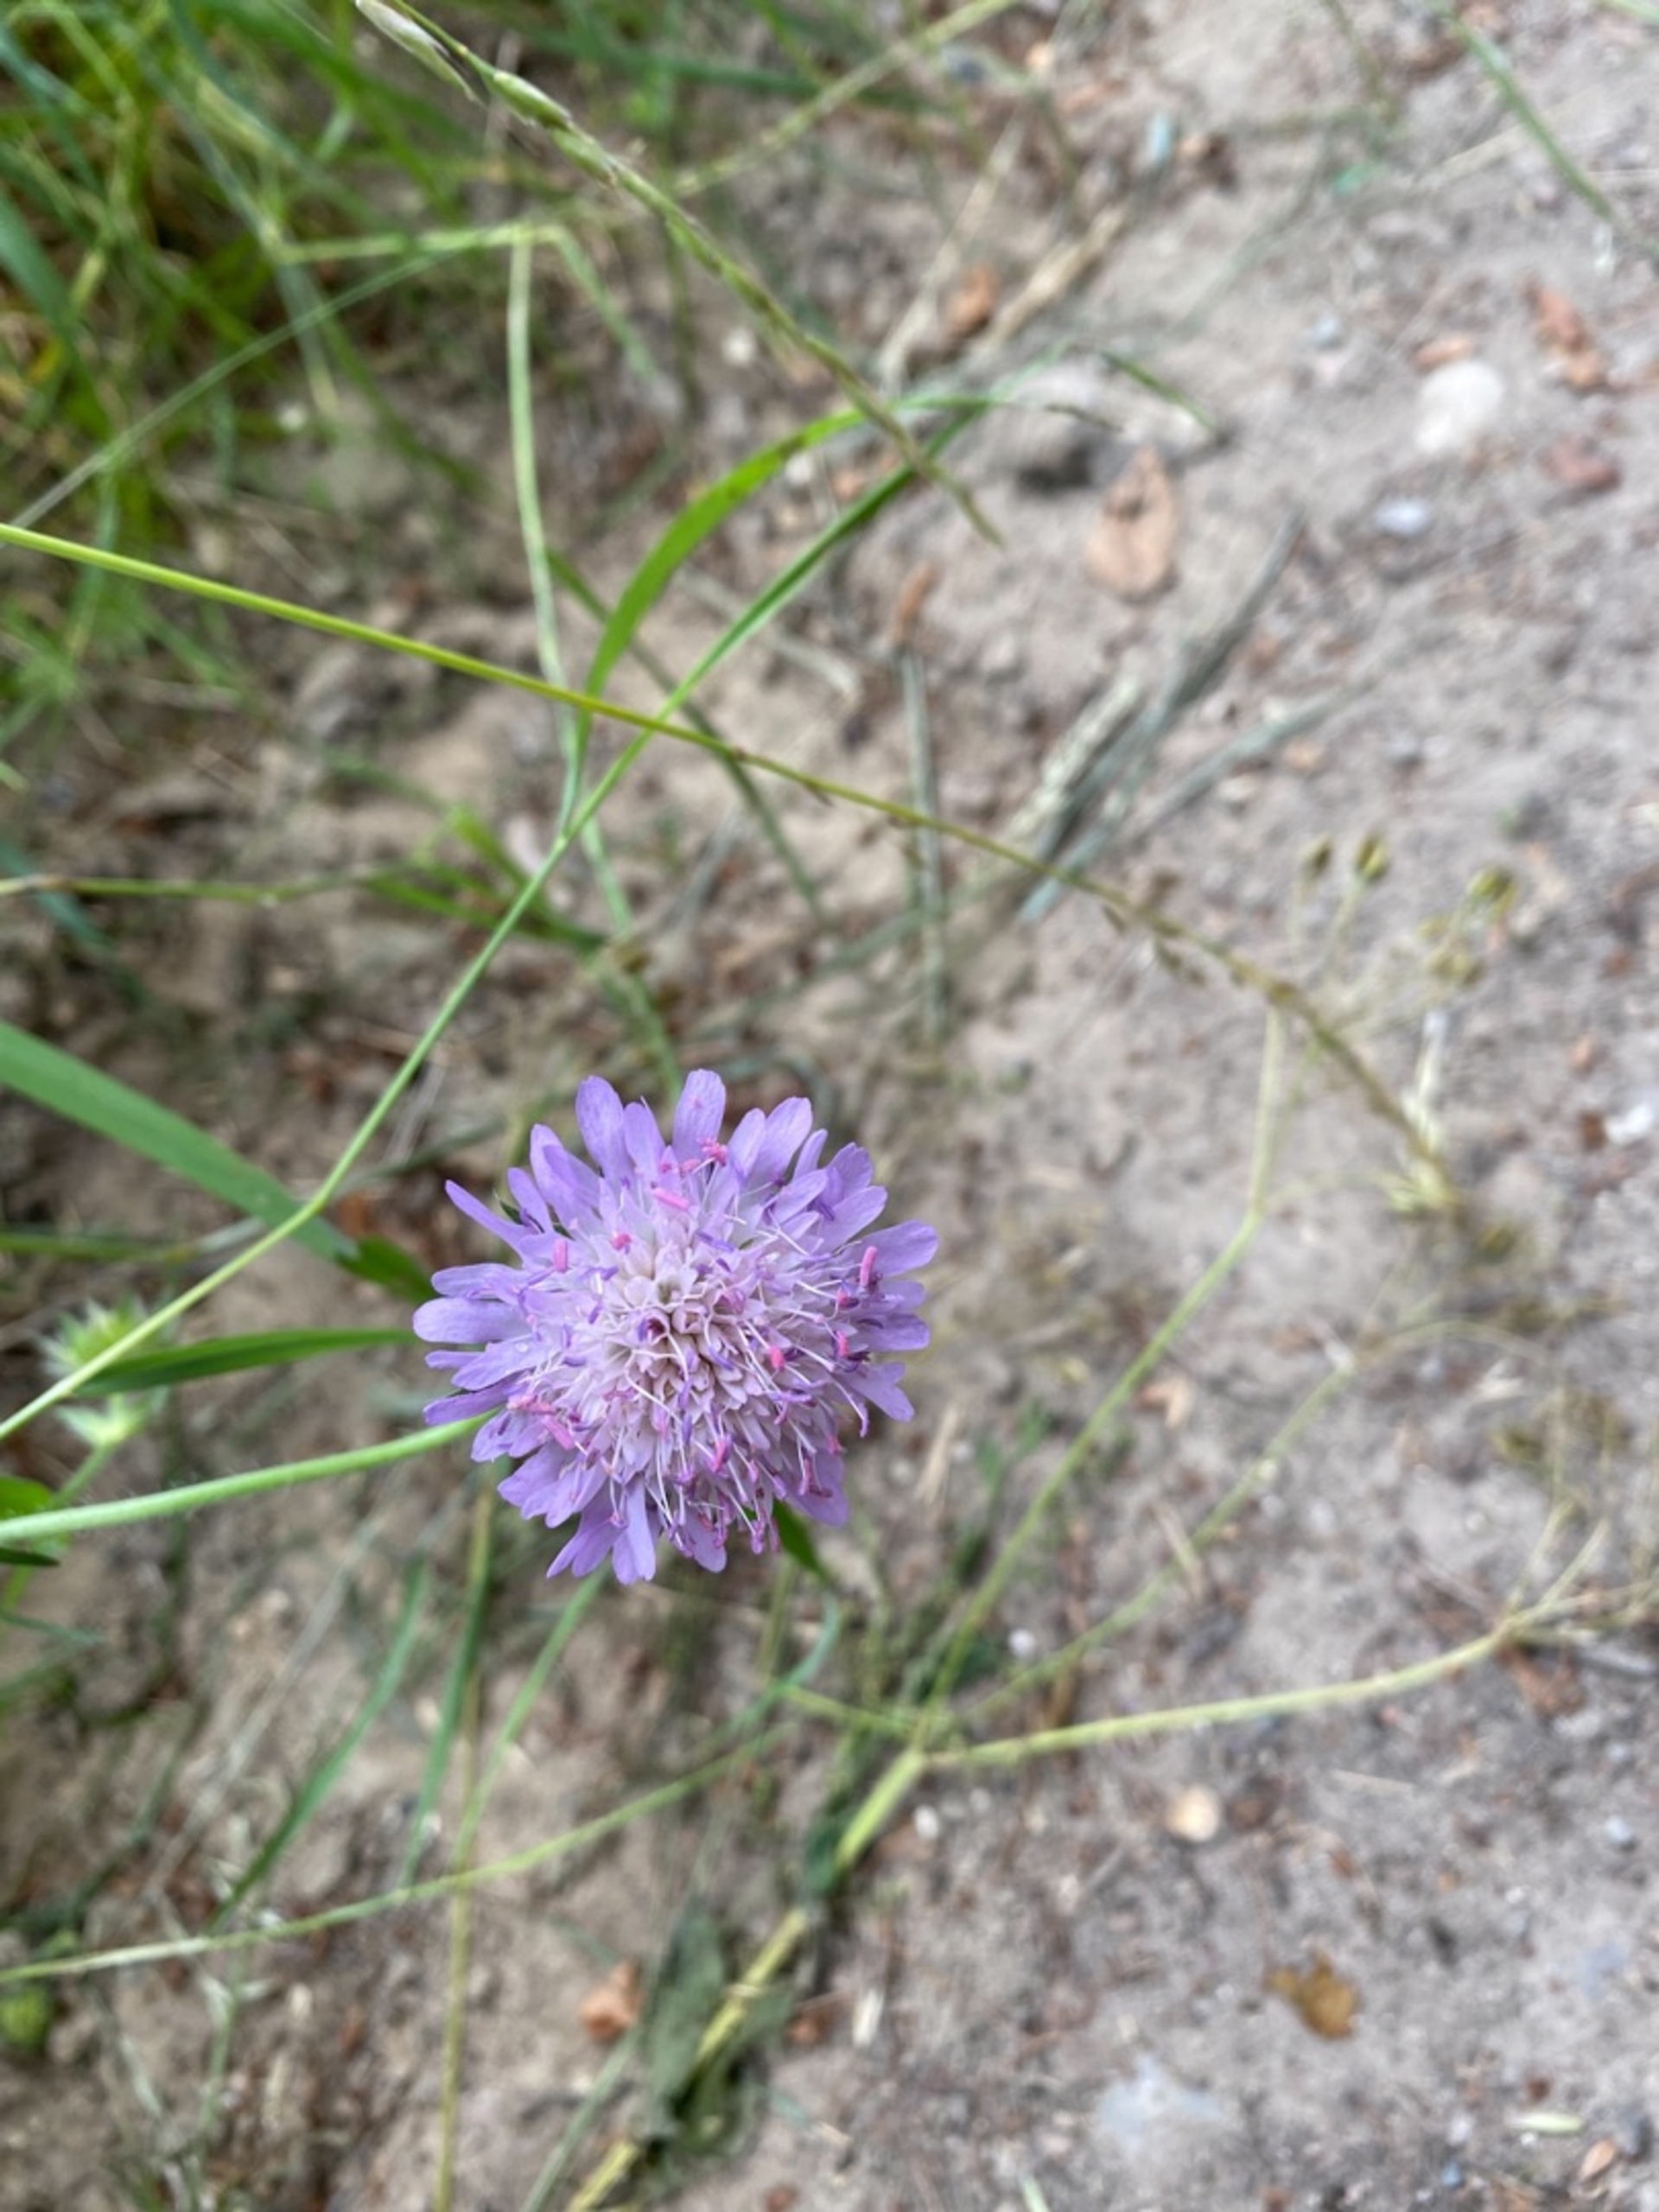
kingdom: Plantae
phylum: Tracheophyta
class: Magnoliopsida
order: Dipsacales
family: Caprifoliaceae
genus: Knautia
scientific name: Knautia arvensis
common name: Blåhat
